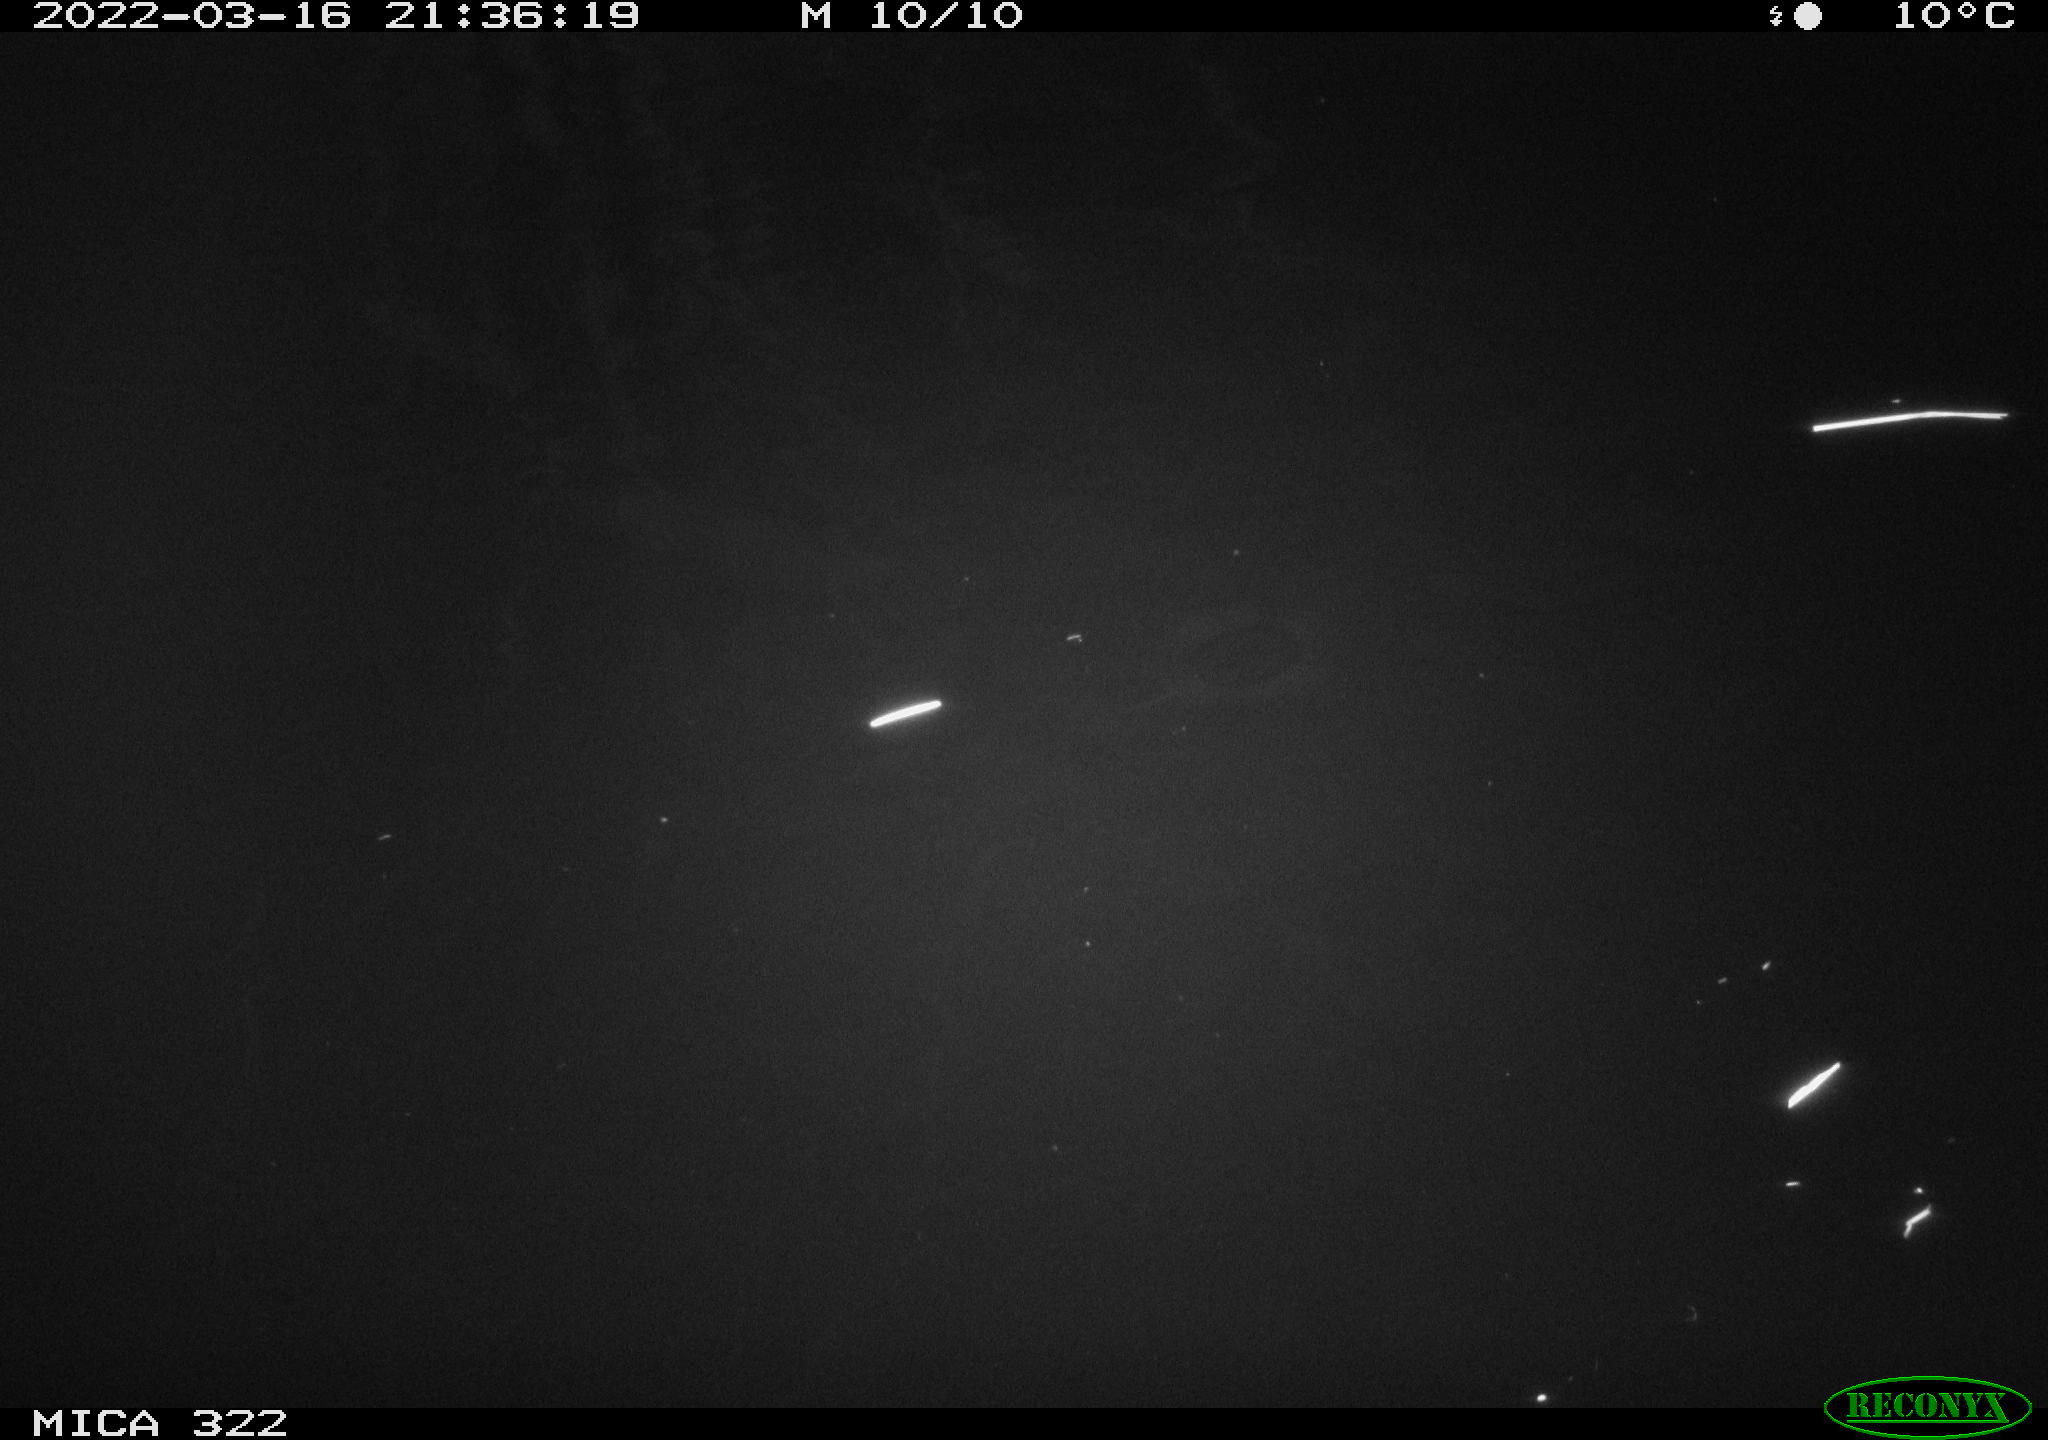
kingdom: Animalia
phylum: Chordata
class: Mammalia
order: Carnivora
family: Mustelidae
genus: Mustela
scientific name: Mustela putorius
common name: European polecat
